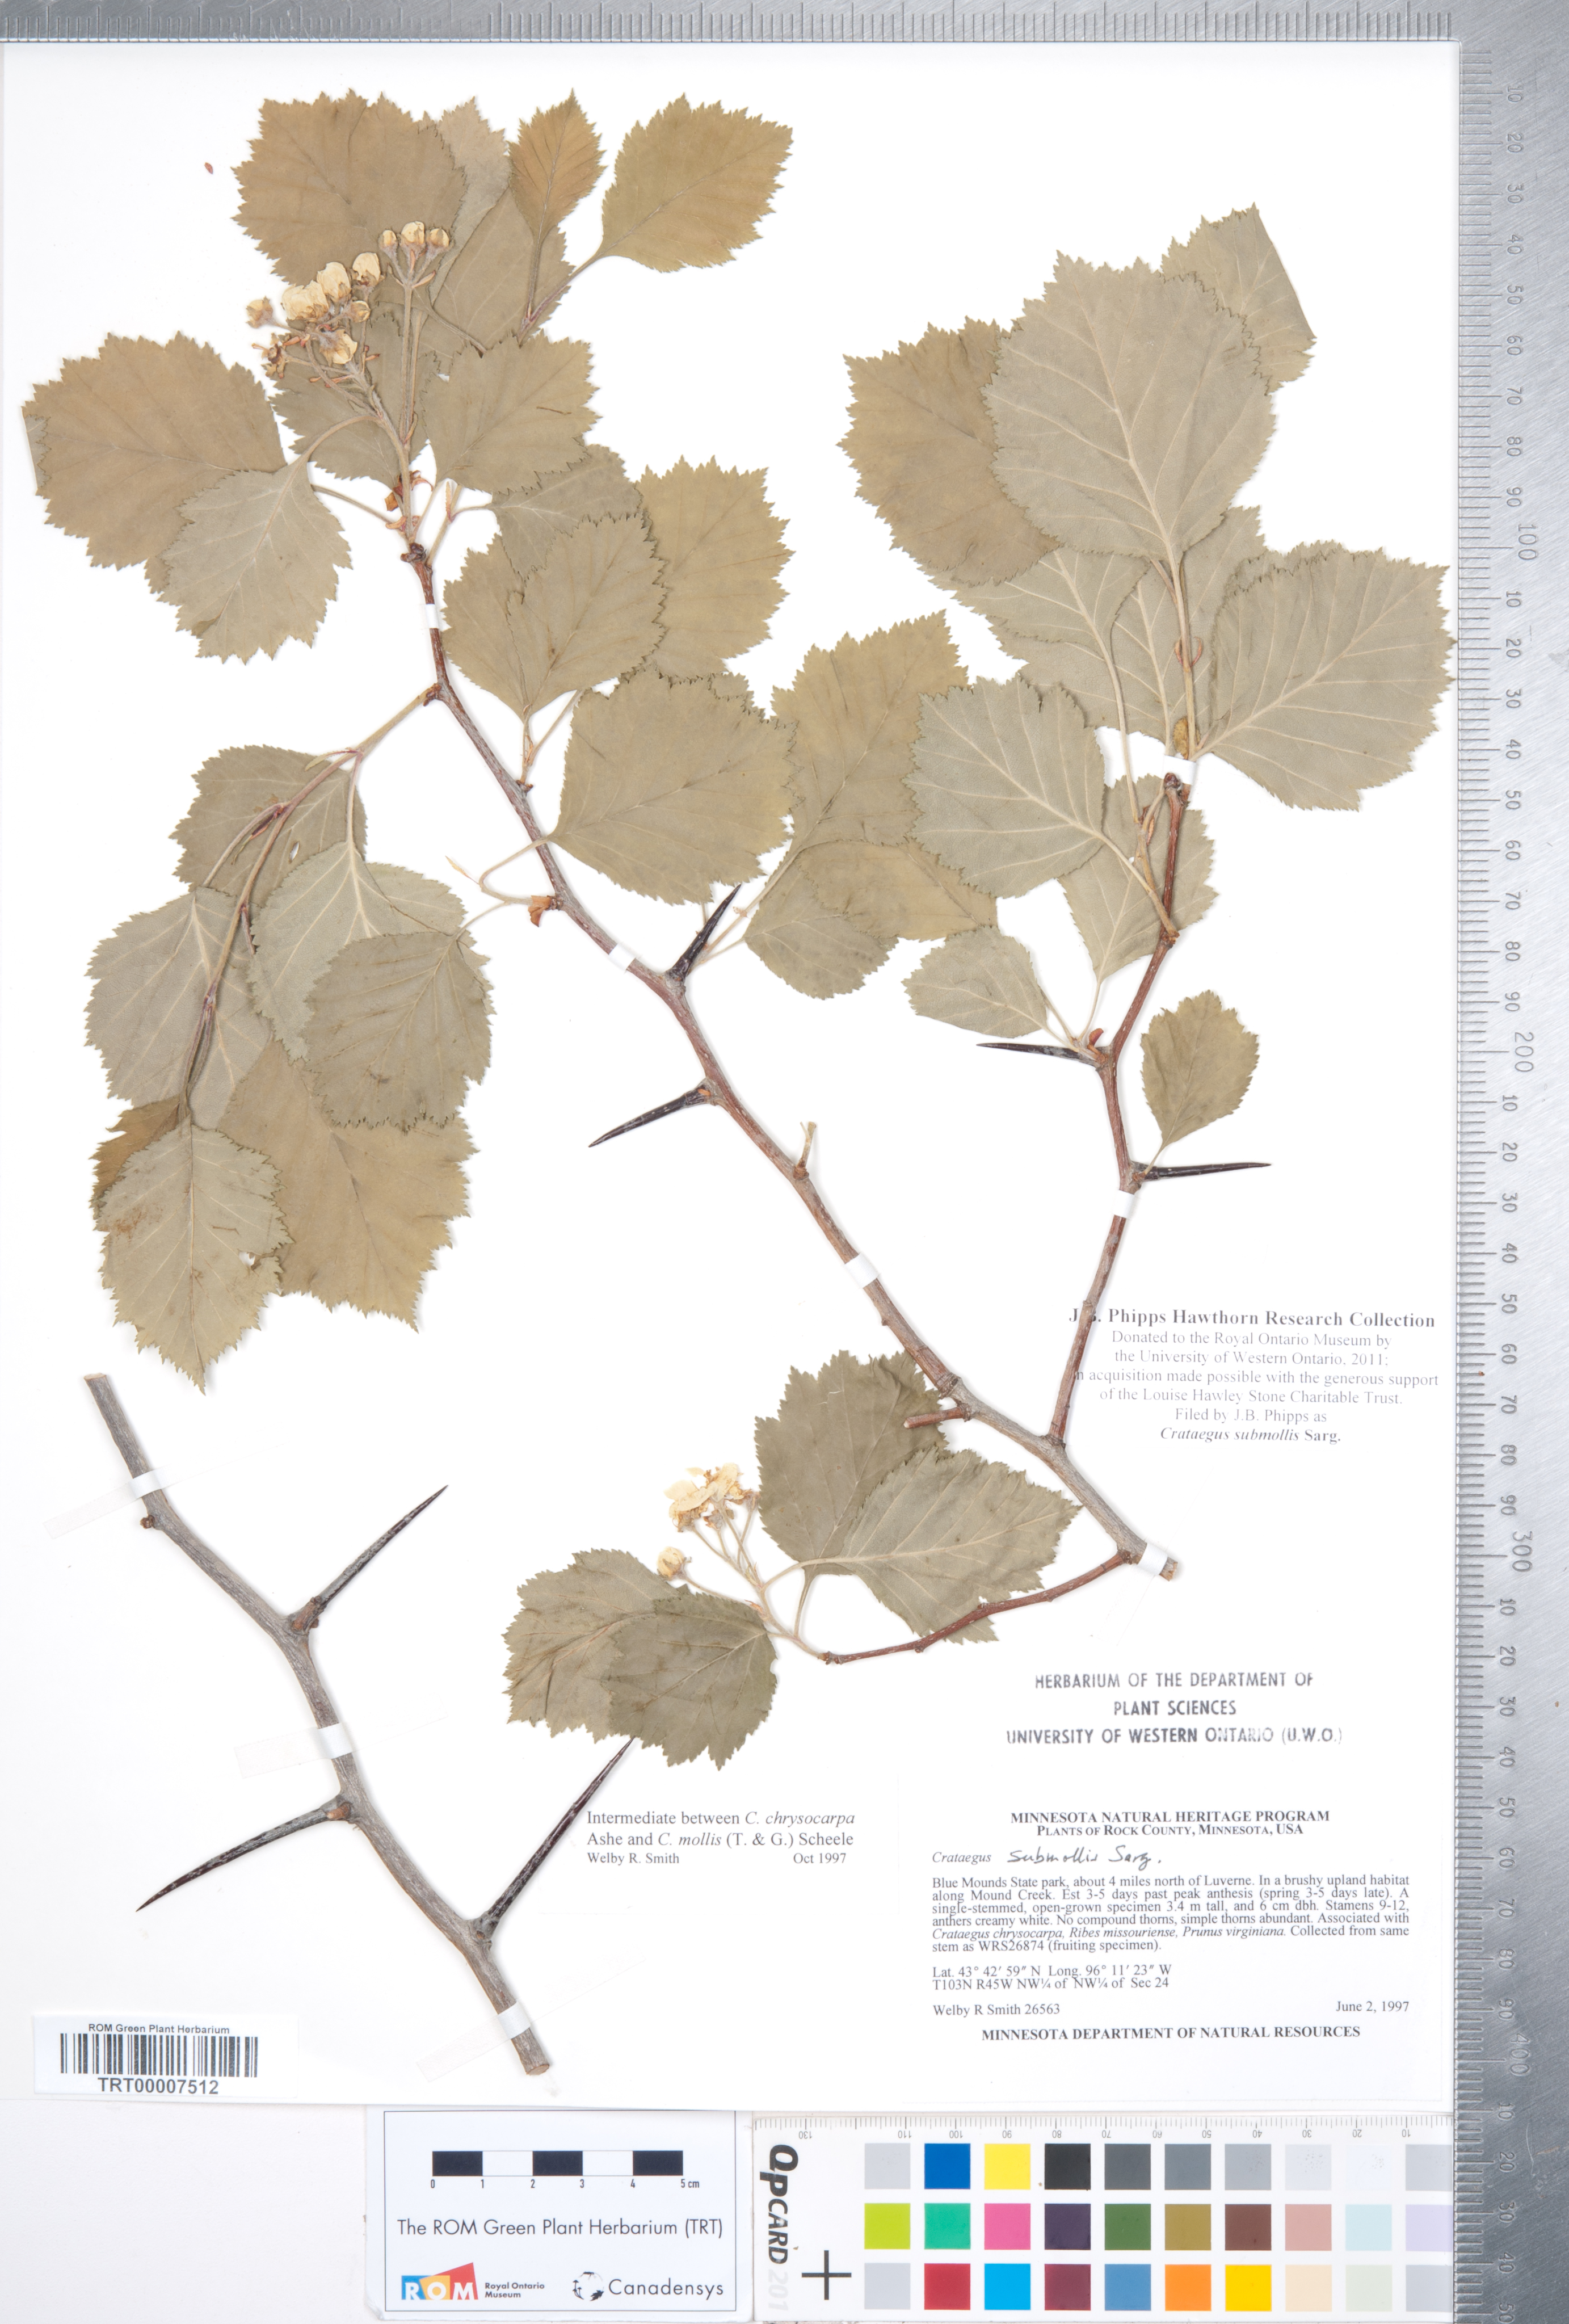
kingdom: Plantae
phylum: Tracheophyta
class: Magnoliopsida
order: Rosales
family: Rosaceae
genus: Crataegus
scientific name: Crataegus submollis
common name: Hairy cockspurthorn
